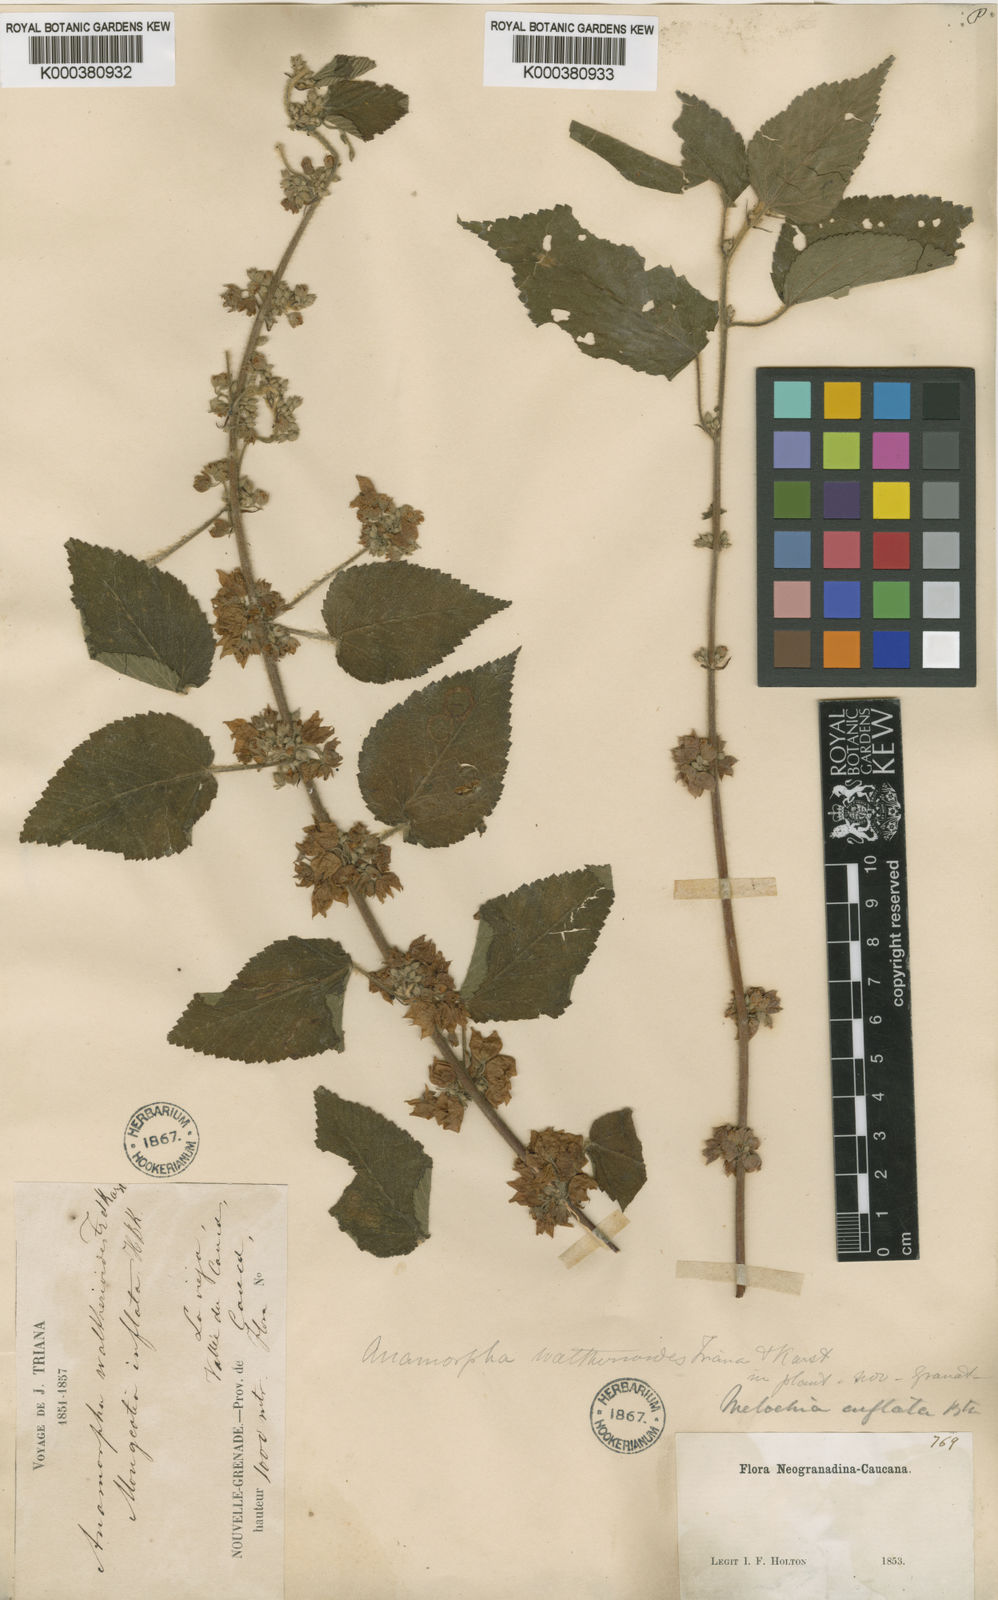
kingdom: Plantae
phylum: Tracheophyta
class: Magnoliopsida
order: Malvales
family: Malvaceae
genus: Melochia
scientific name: Melochia lupulina
